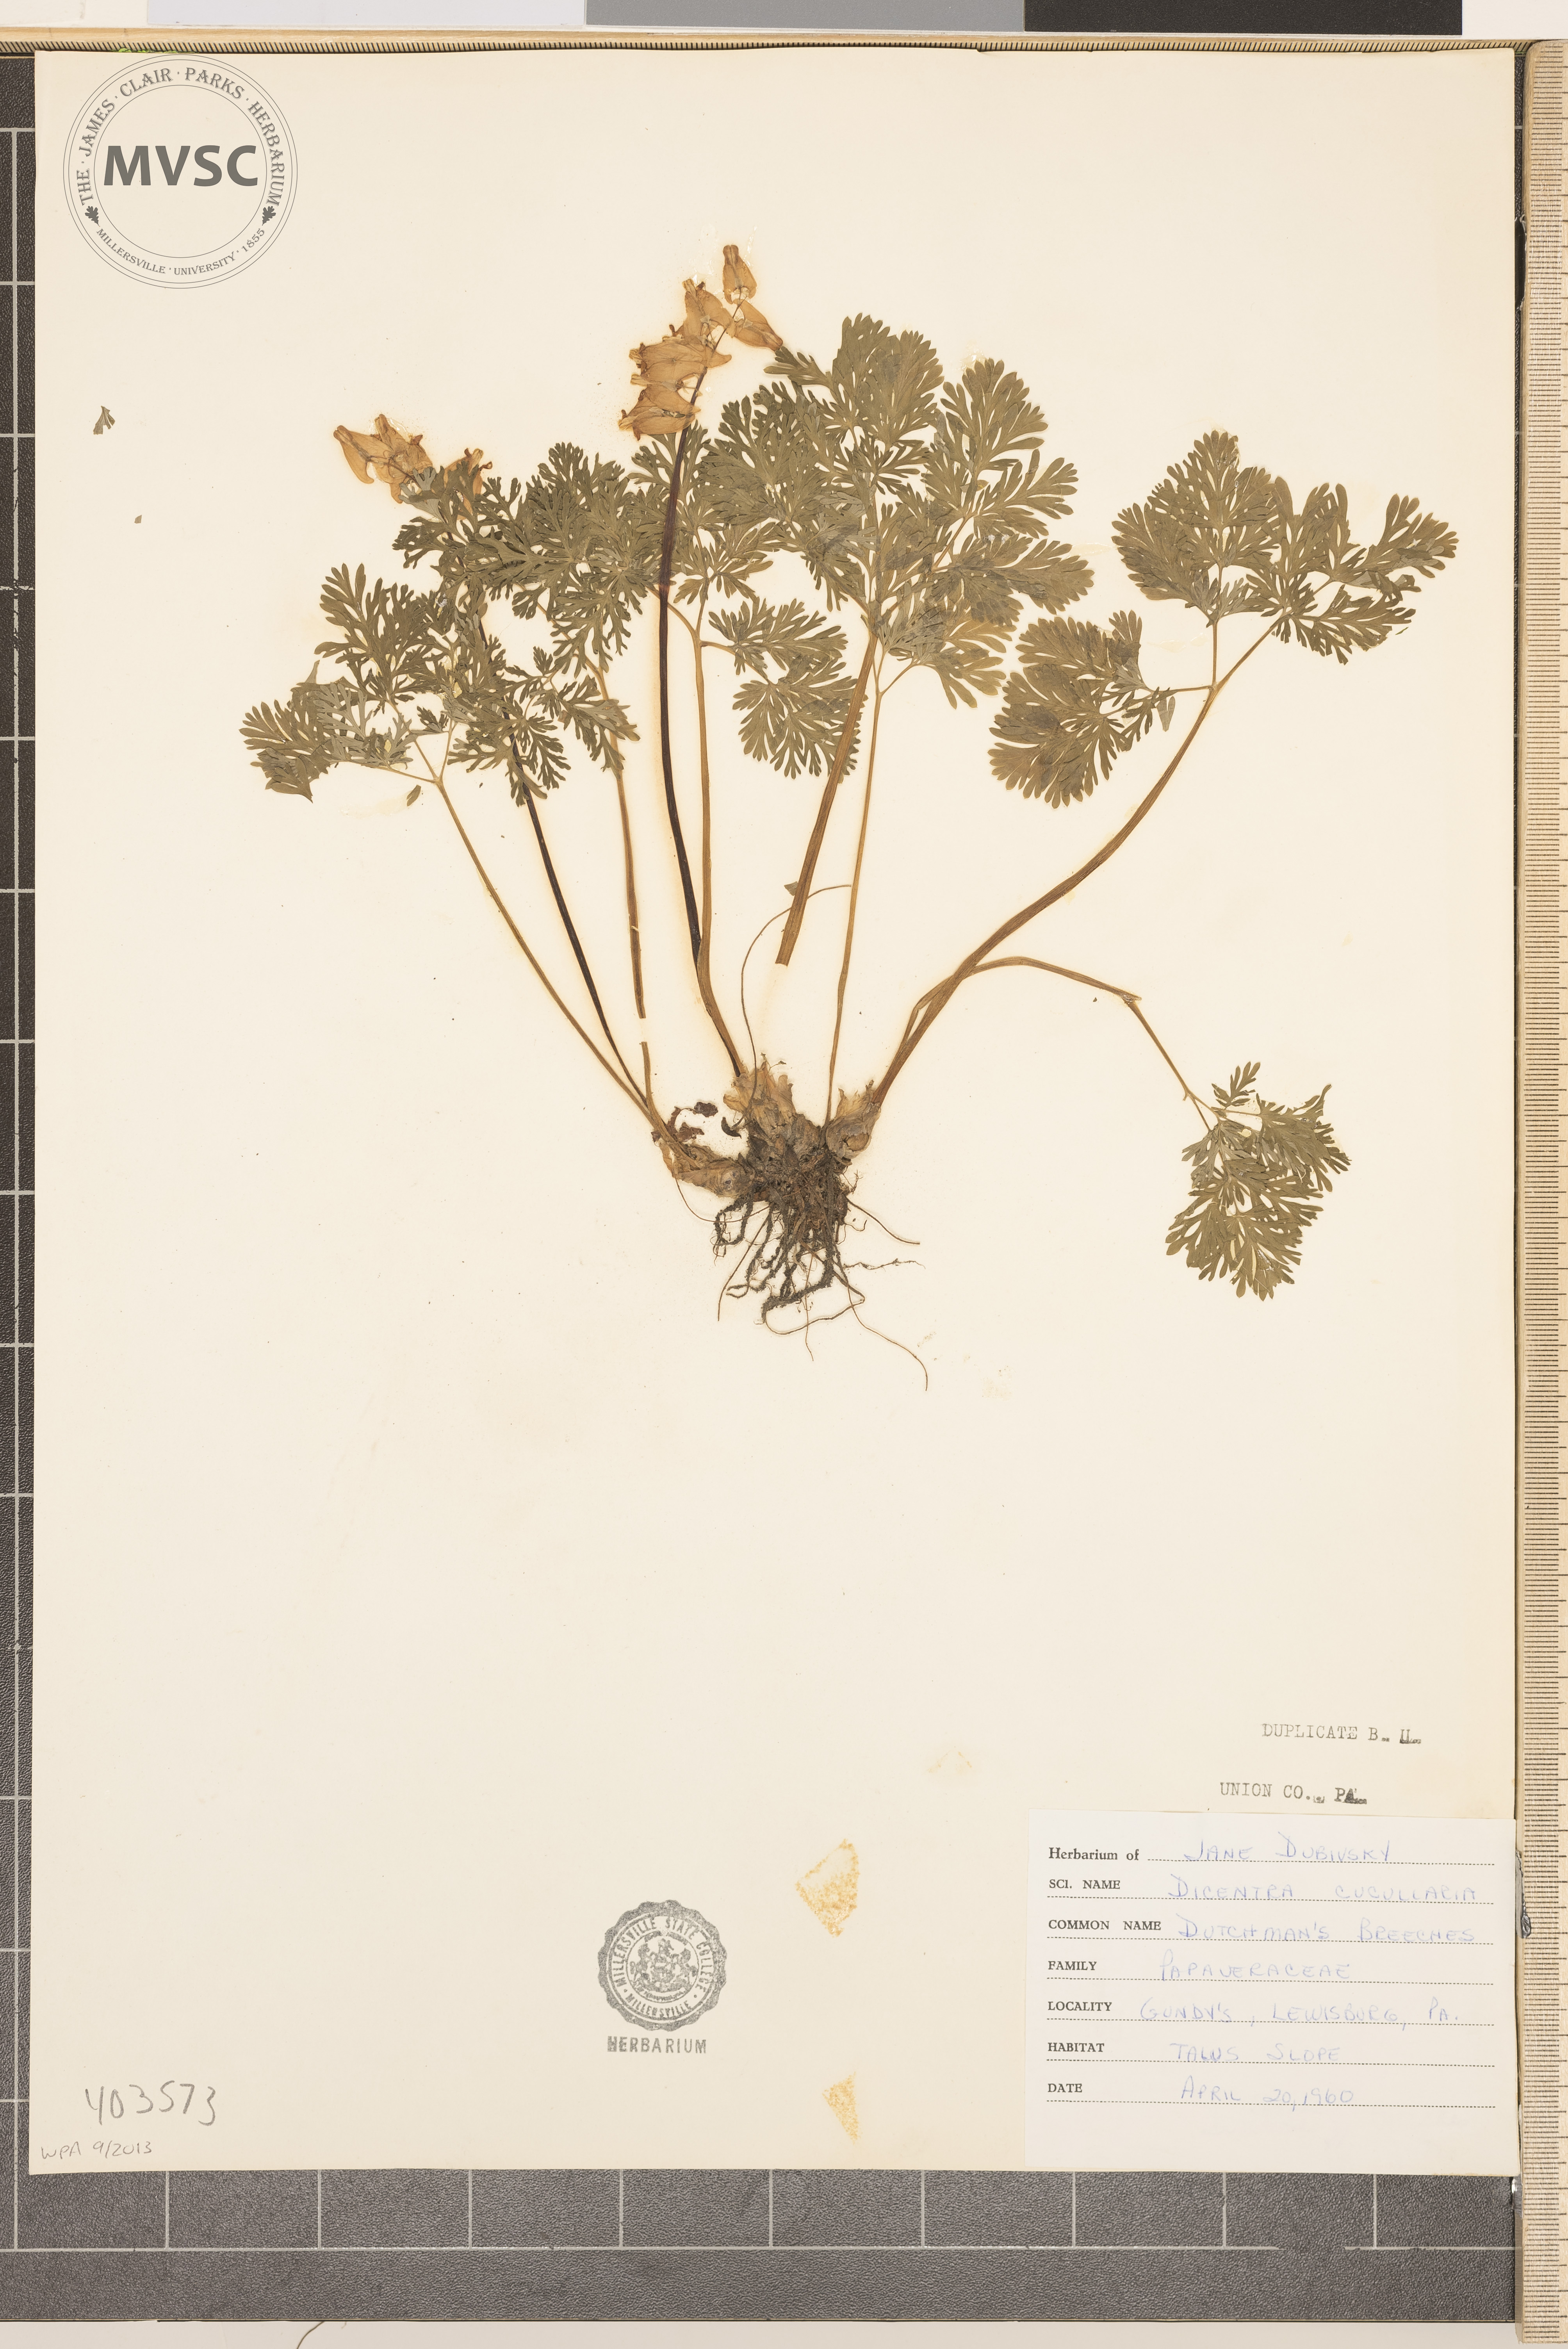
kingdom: Plantae
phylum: Tracheophyta
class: Magnoliopsida
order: Ranunculales
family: Papaveraceae
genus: Dicentra
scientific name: Dicentra cucullaria
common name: Dutchman's Breeches
